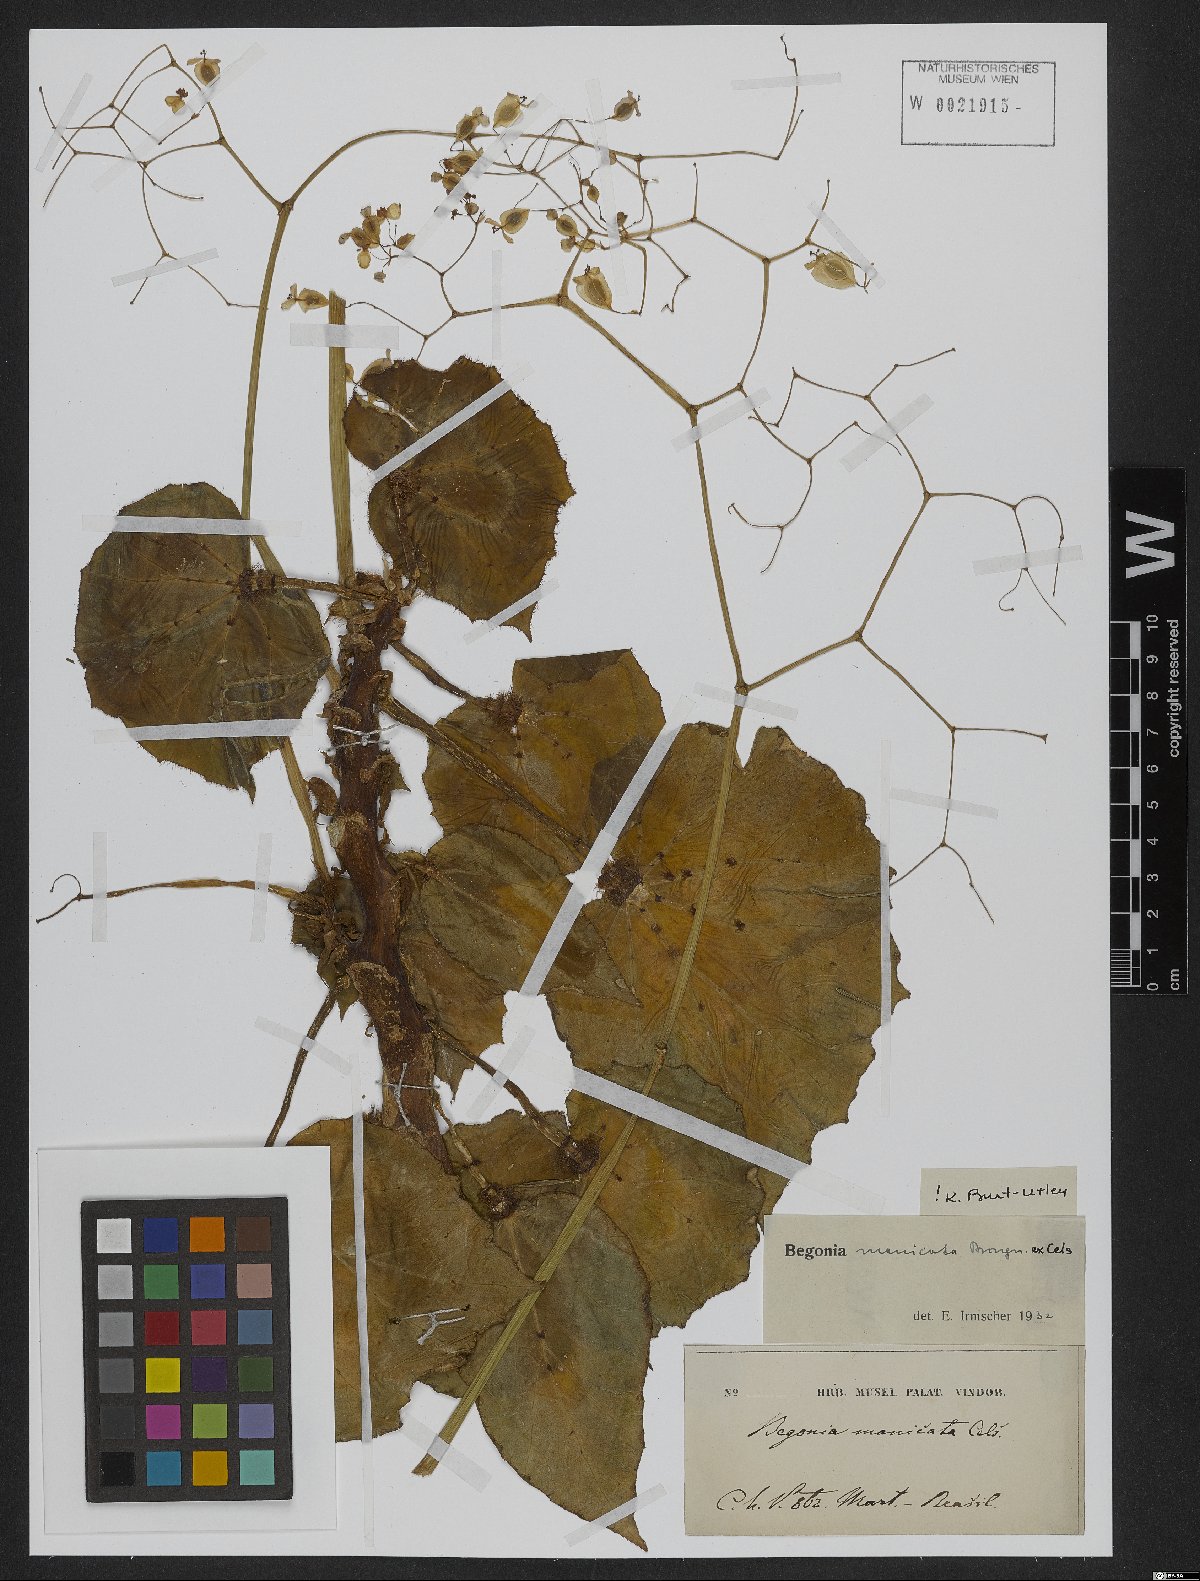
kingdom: Plantae
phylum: Tracheophyta
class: Magnoliopsida
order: Cucurbitales
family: Begoniaceae
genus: Begonia
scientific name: Begonia manicata
